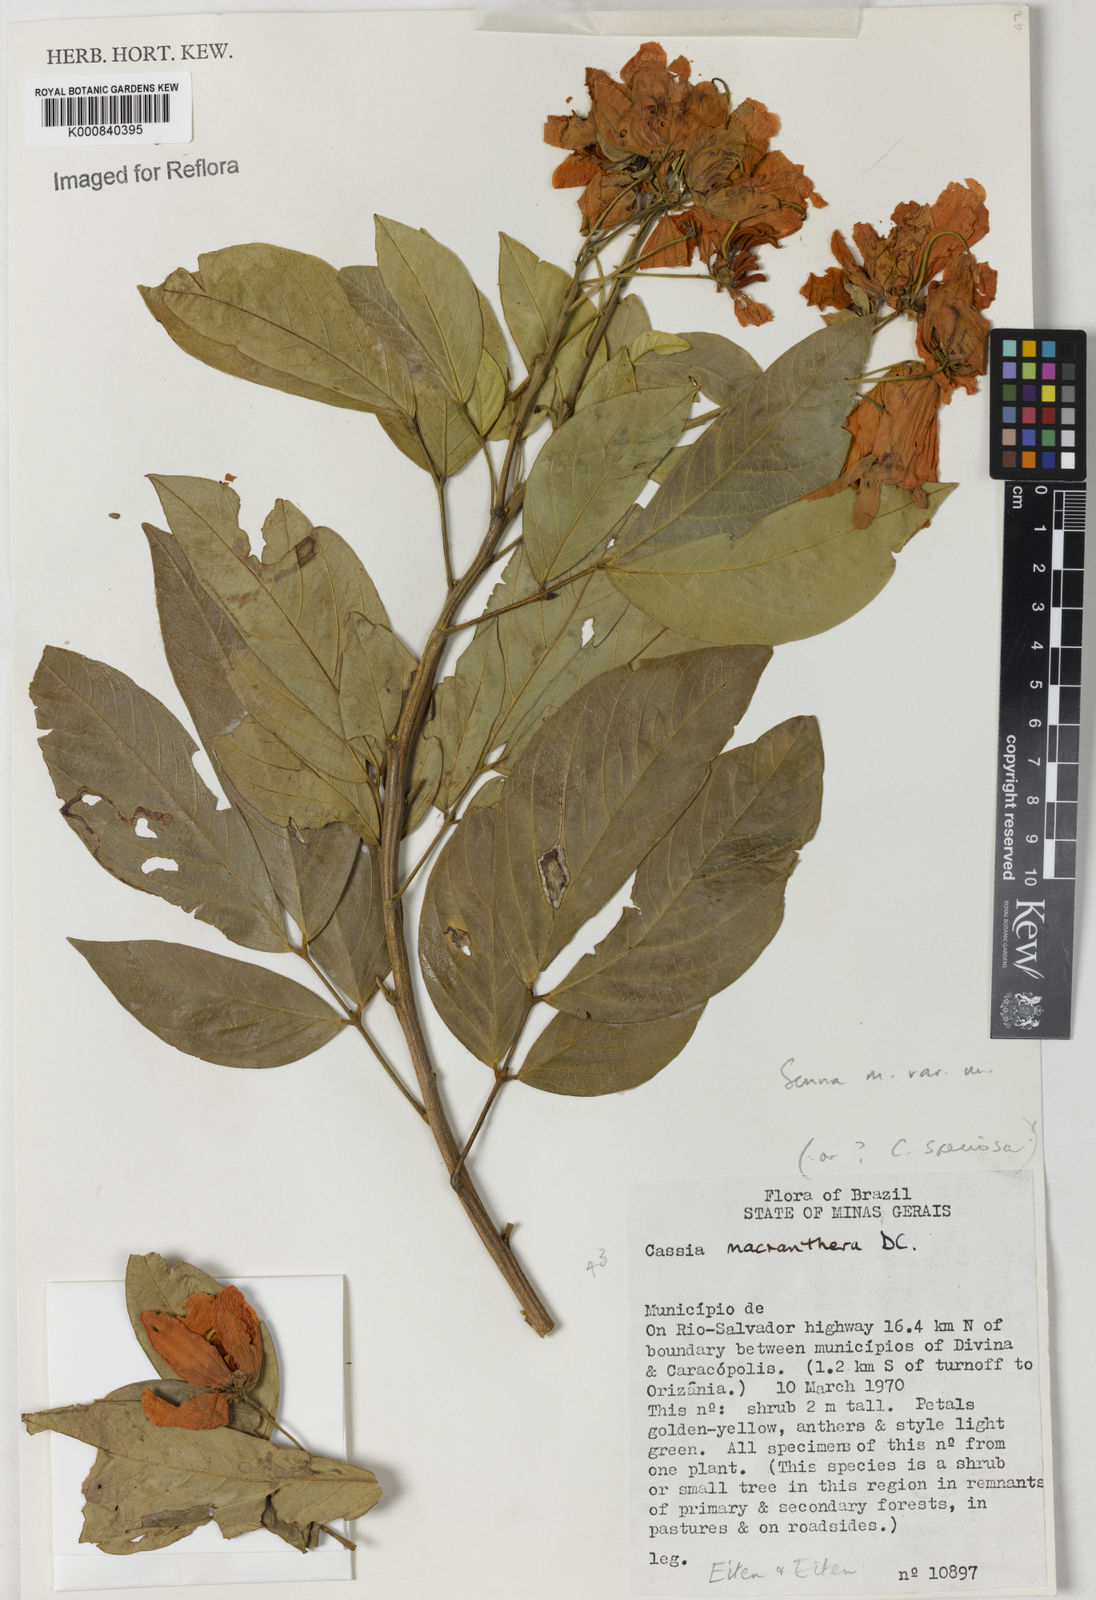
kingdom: Plantae
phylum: Tracheophyta
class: Magnoliopsida
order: Fabales
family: Fabaceae
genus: Senna
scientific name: Senna macranthera
